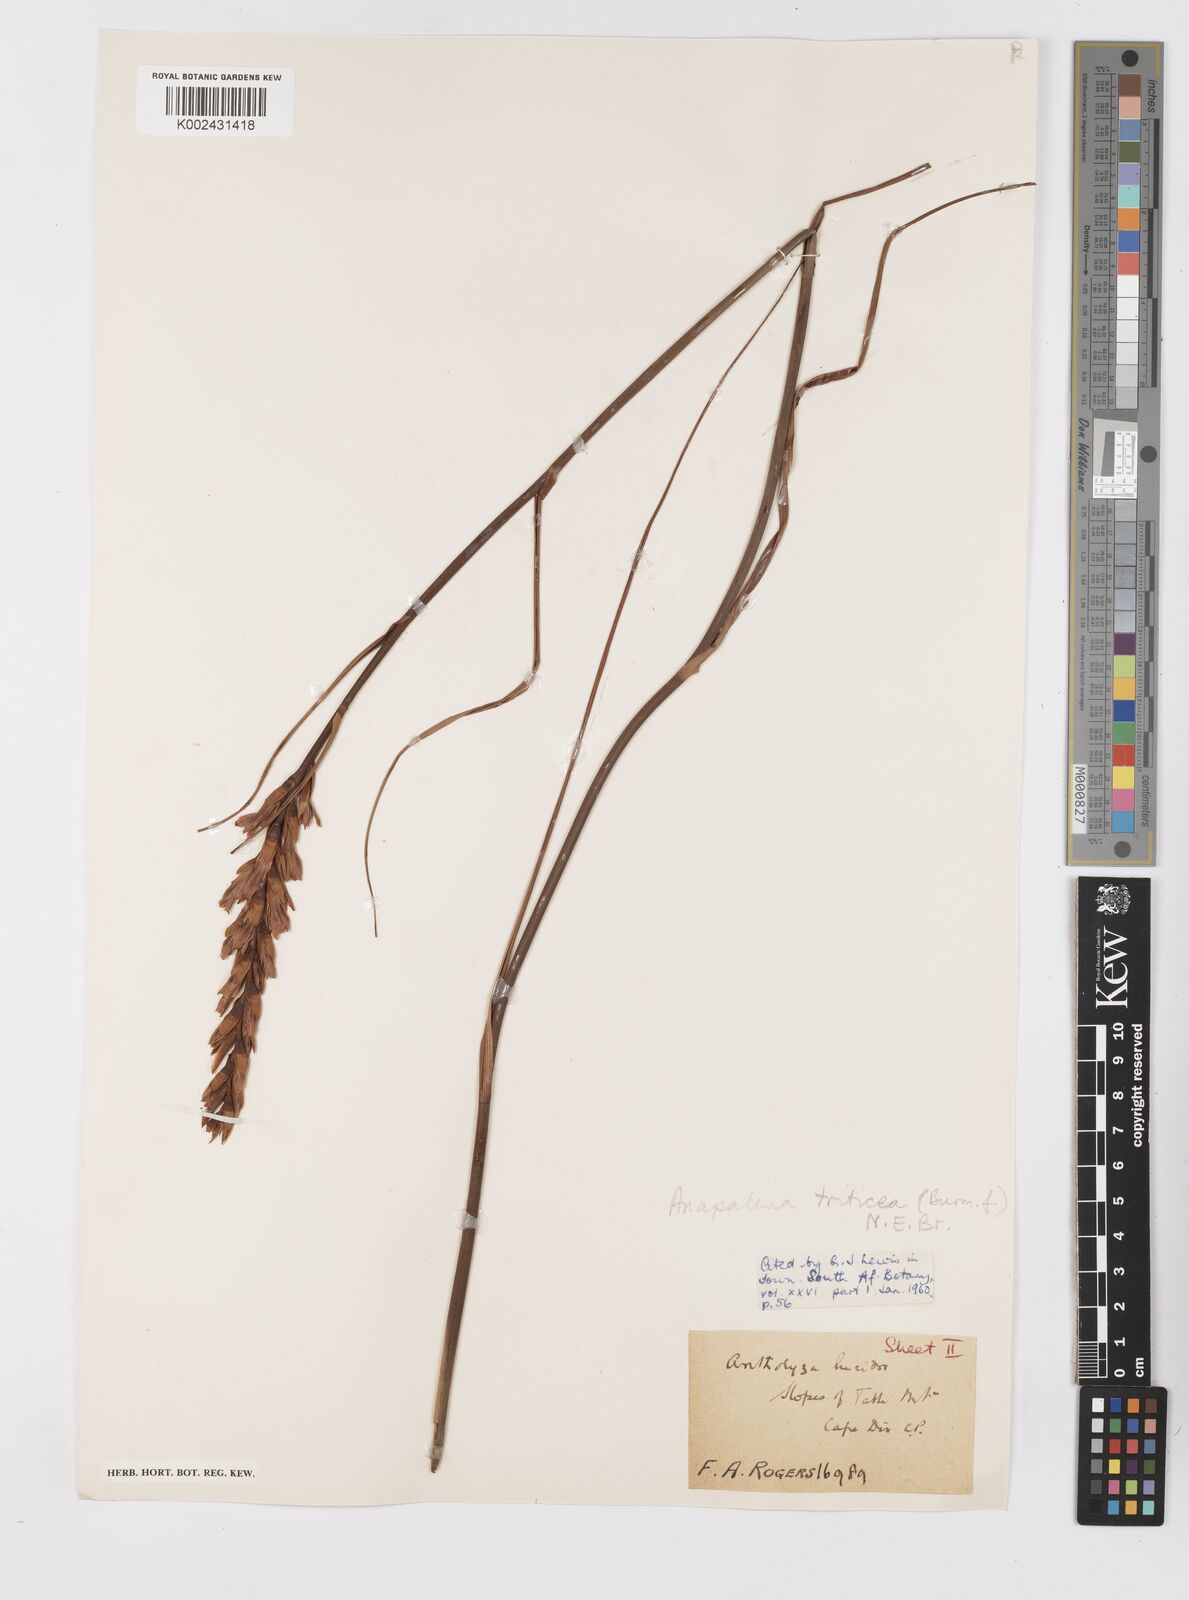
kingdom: Plantae
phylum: Tracheophyta
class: Liliopsida
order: Asparagales
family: Iridaceae
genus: Tritoniopsis
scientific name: Tritoniopsis triticea
